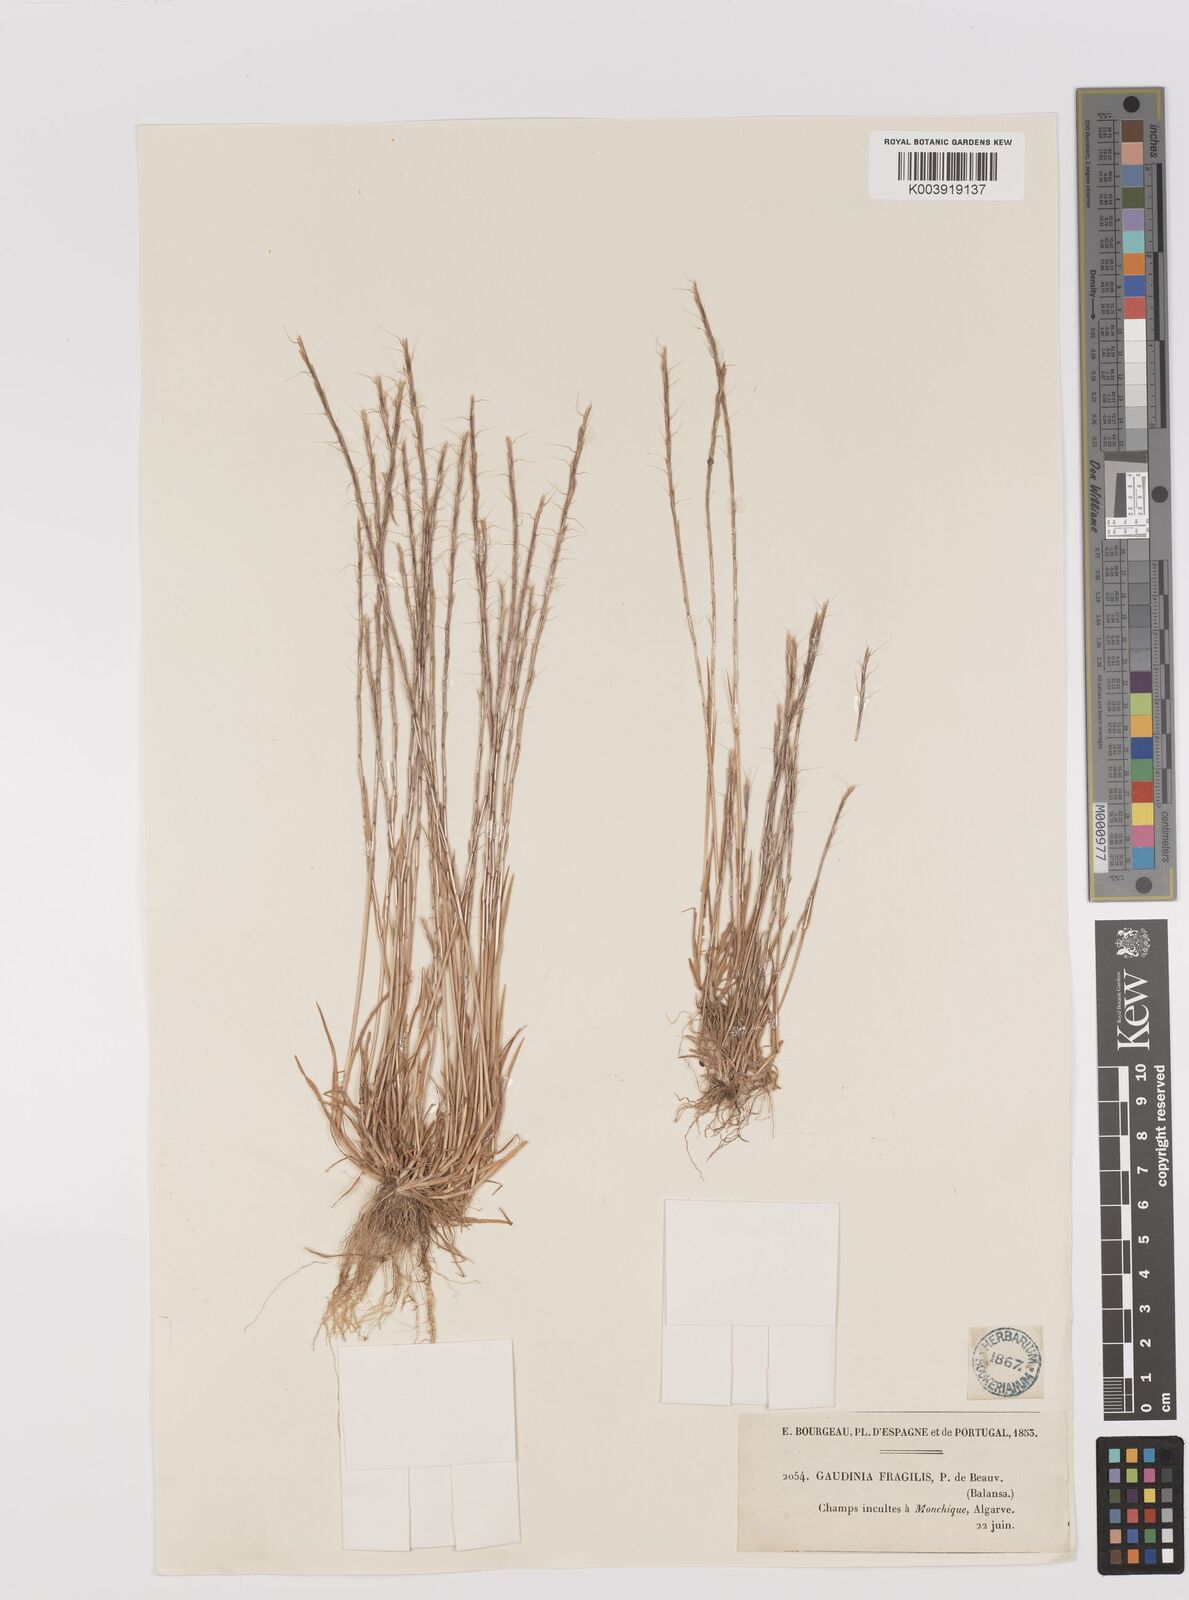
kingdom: Plantae
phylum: Tracheophyta
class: Liliopsida
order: Poales
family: Poaceae
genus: Gaudinia
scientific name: Gaudinia fragilis
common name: French oat-grass
